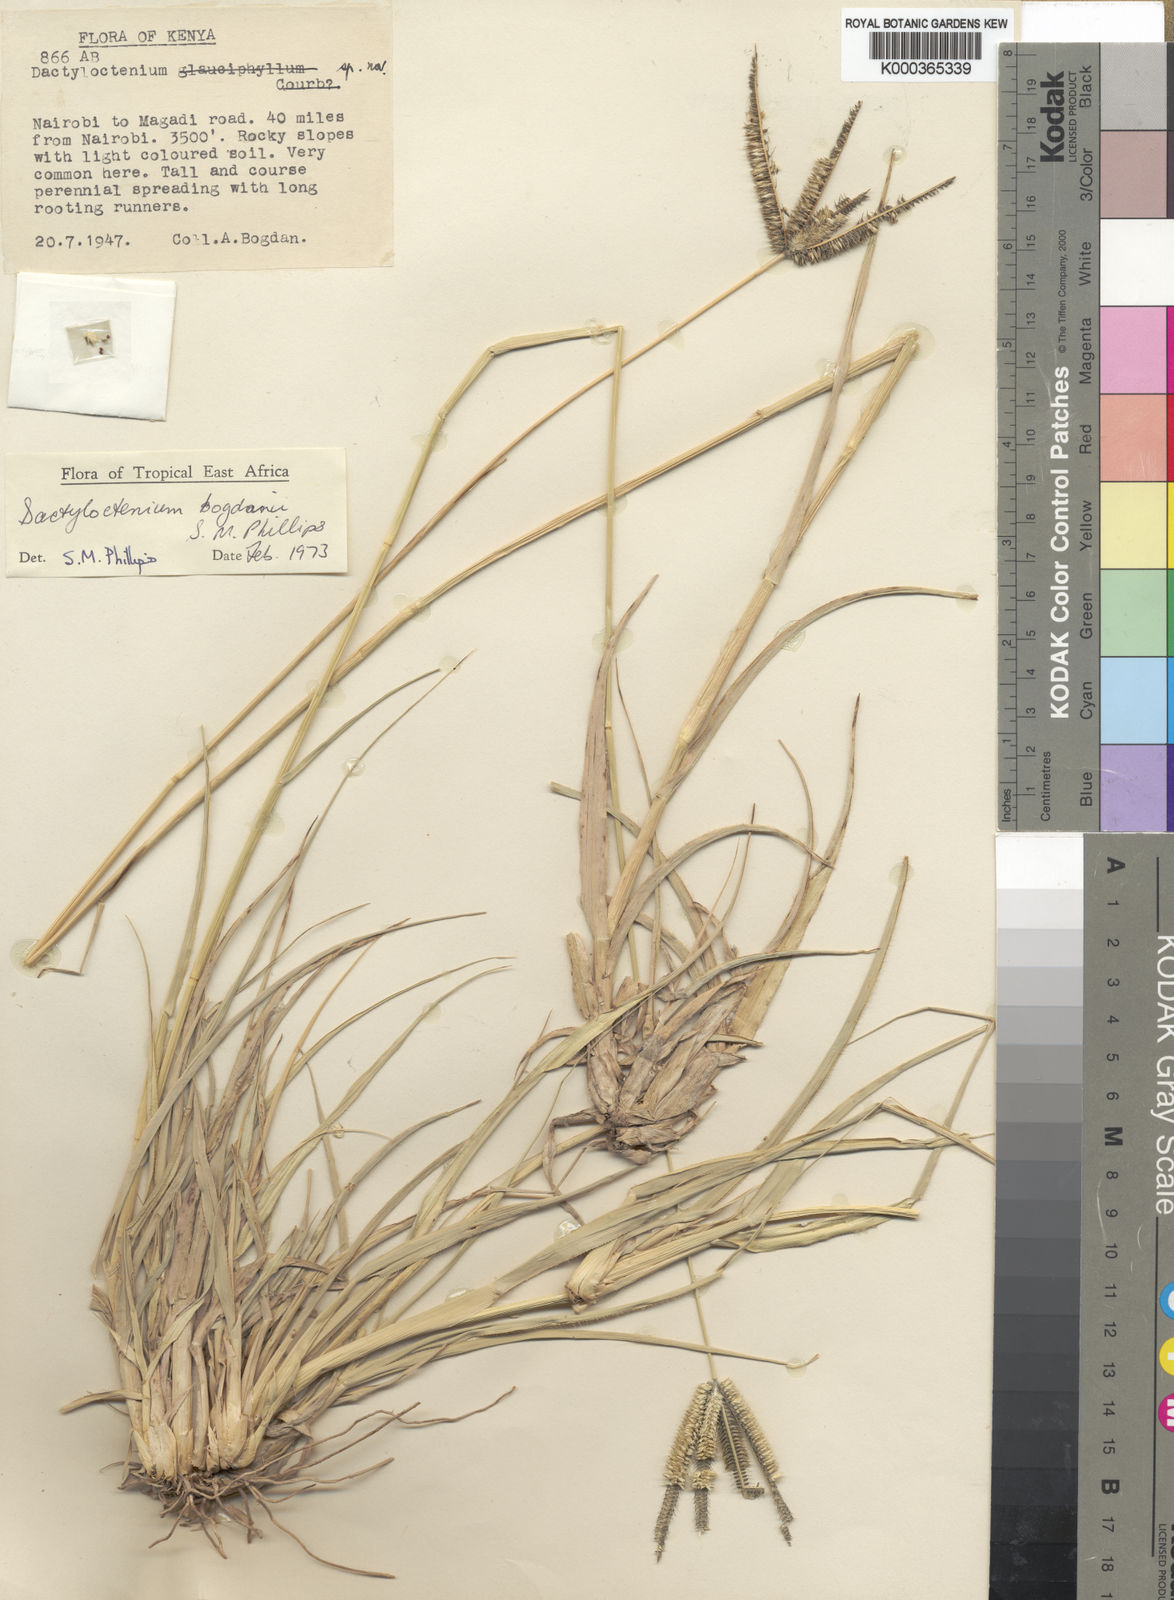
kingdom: Plantae
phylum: Tracheophyta
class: Liliopsida
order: Poales
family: Poaceae
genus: Dactyloctenium
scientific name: Dactyloctenium geminatum
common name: Crowsfoot grass
